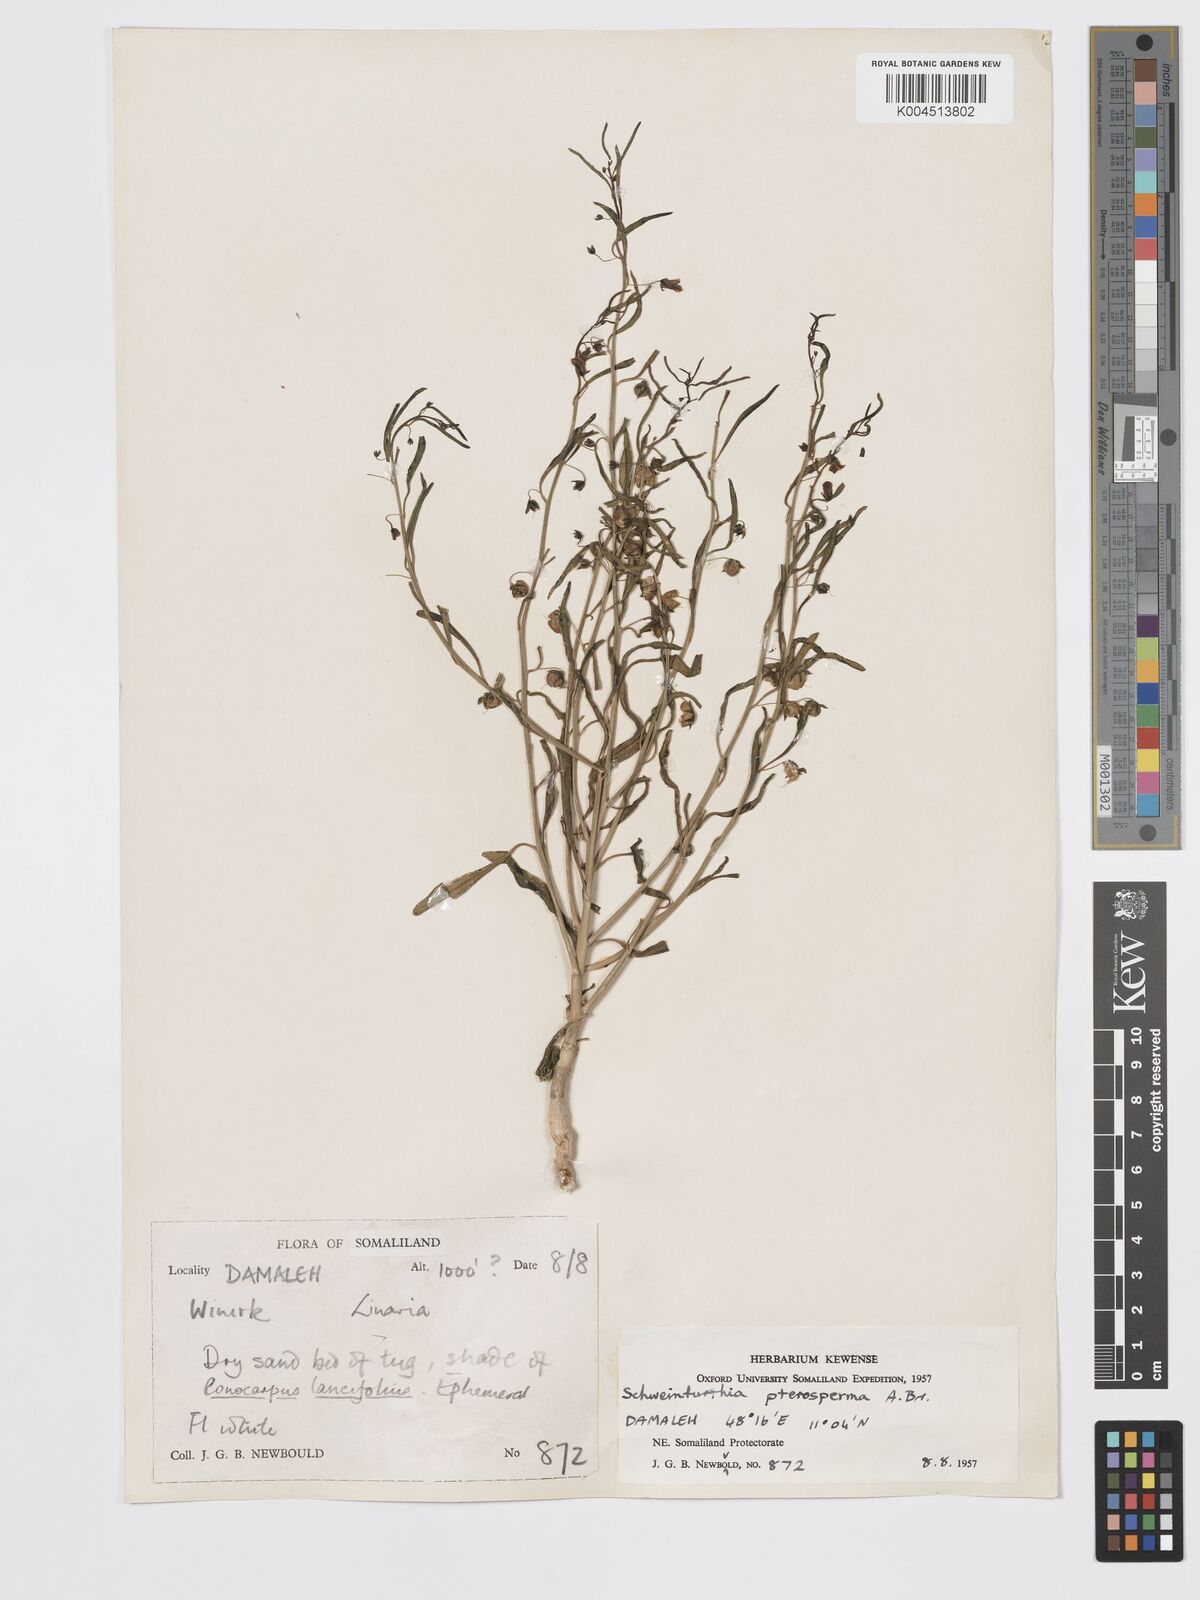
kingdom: Plantae
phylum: Tracheophyta
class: Magnoliopsida
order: Lamiales
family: Plantaginaceae
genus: Schweinfurthia
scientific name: Schweinfurthia pterosperma
